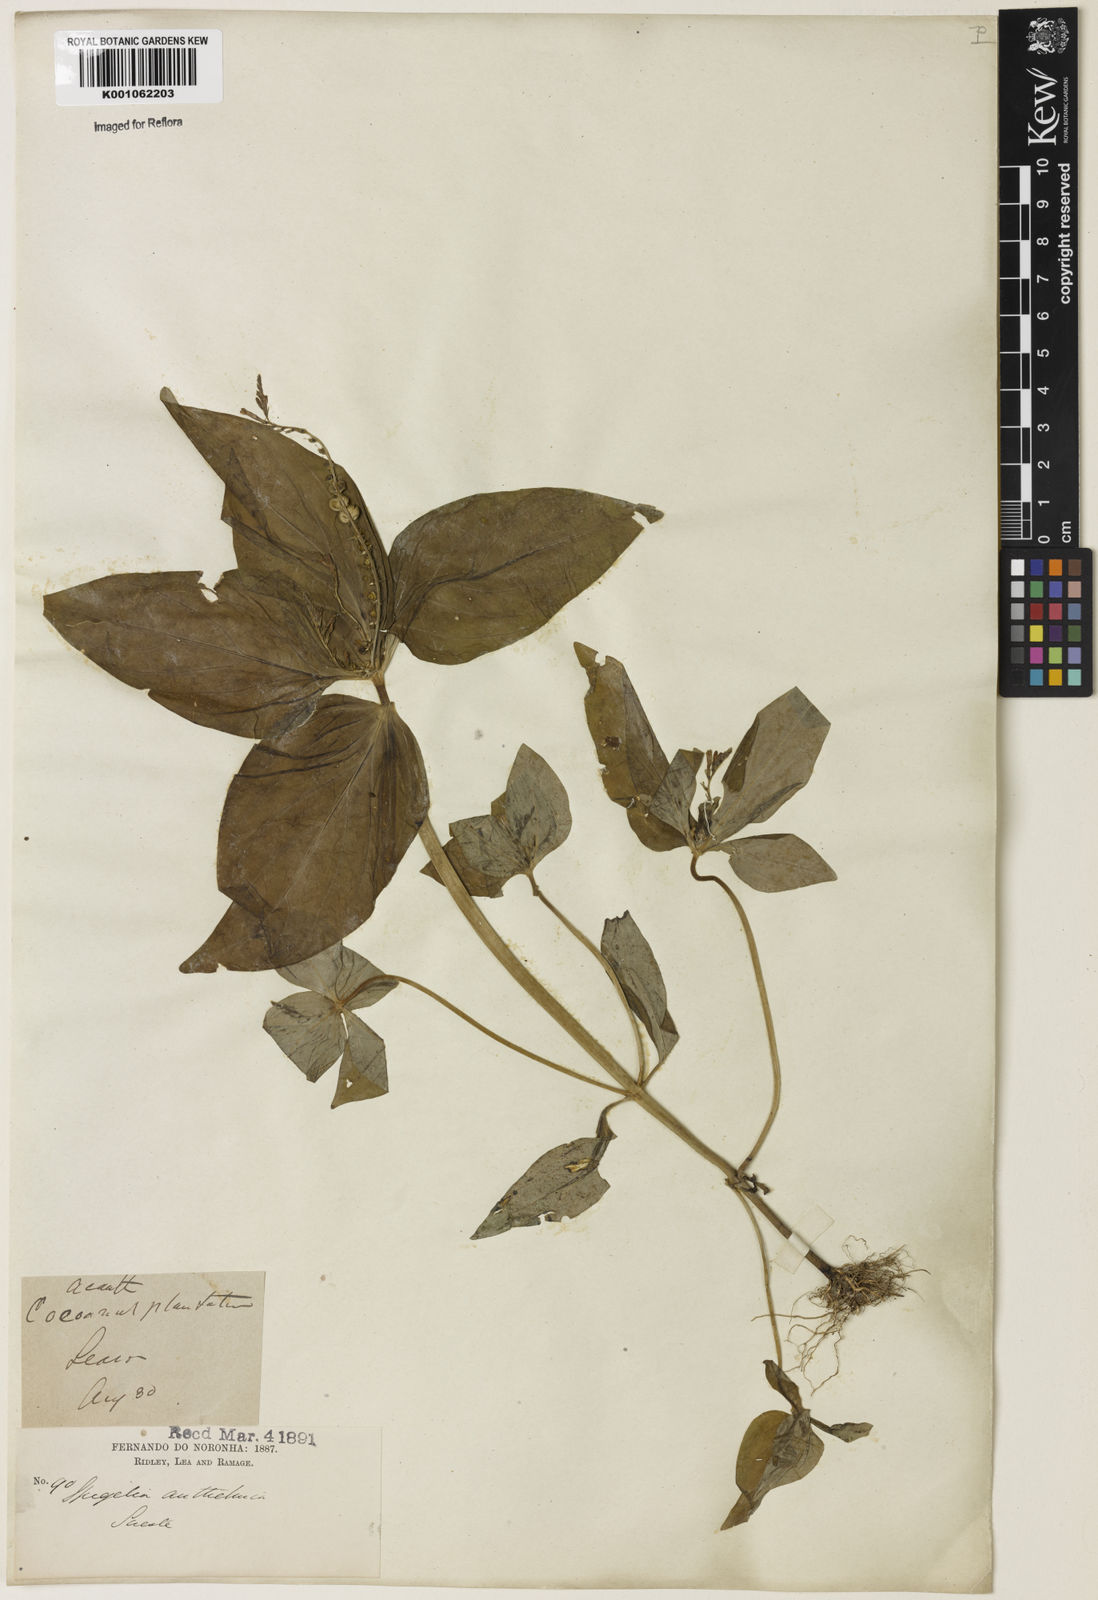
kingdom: Plantae
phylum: Tracheophyta
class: Magnoliopsida
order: Gentianales
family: Loganiaceae
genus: Spigelia
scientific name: Spigelia anthelmia
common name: West indian-pink
